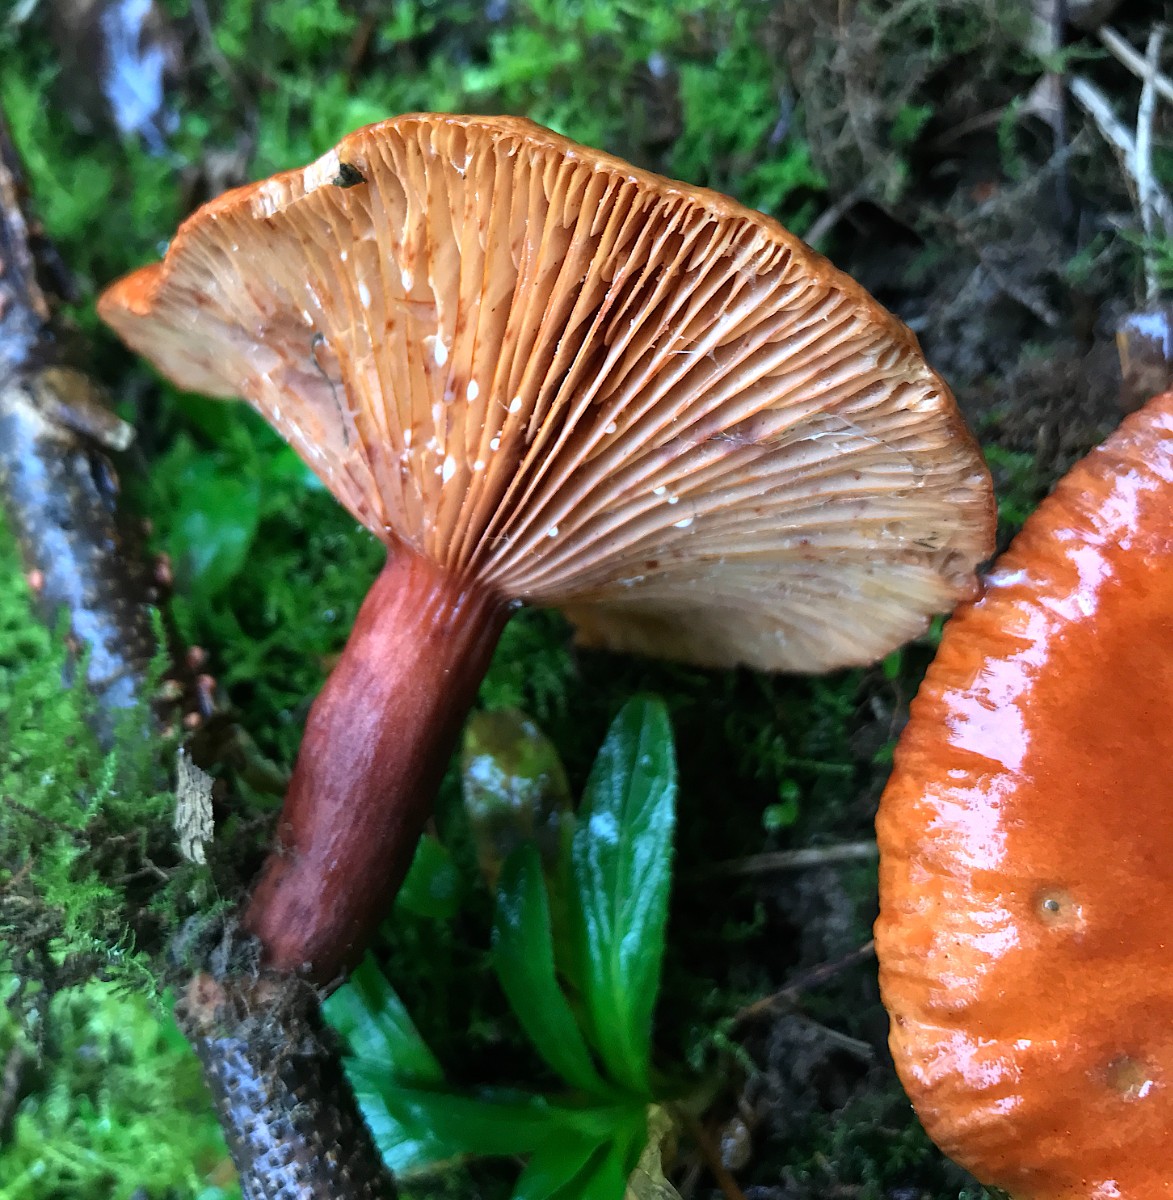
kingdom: Fungi
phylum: Basidiomycota
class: Agaricomycetes
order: Russulales
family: Russulaceae
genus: Lactarius
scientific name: Lactarius fulvissimus
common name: ræve-mælkehat
